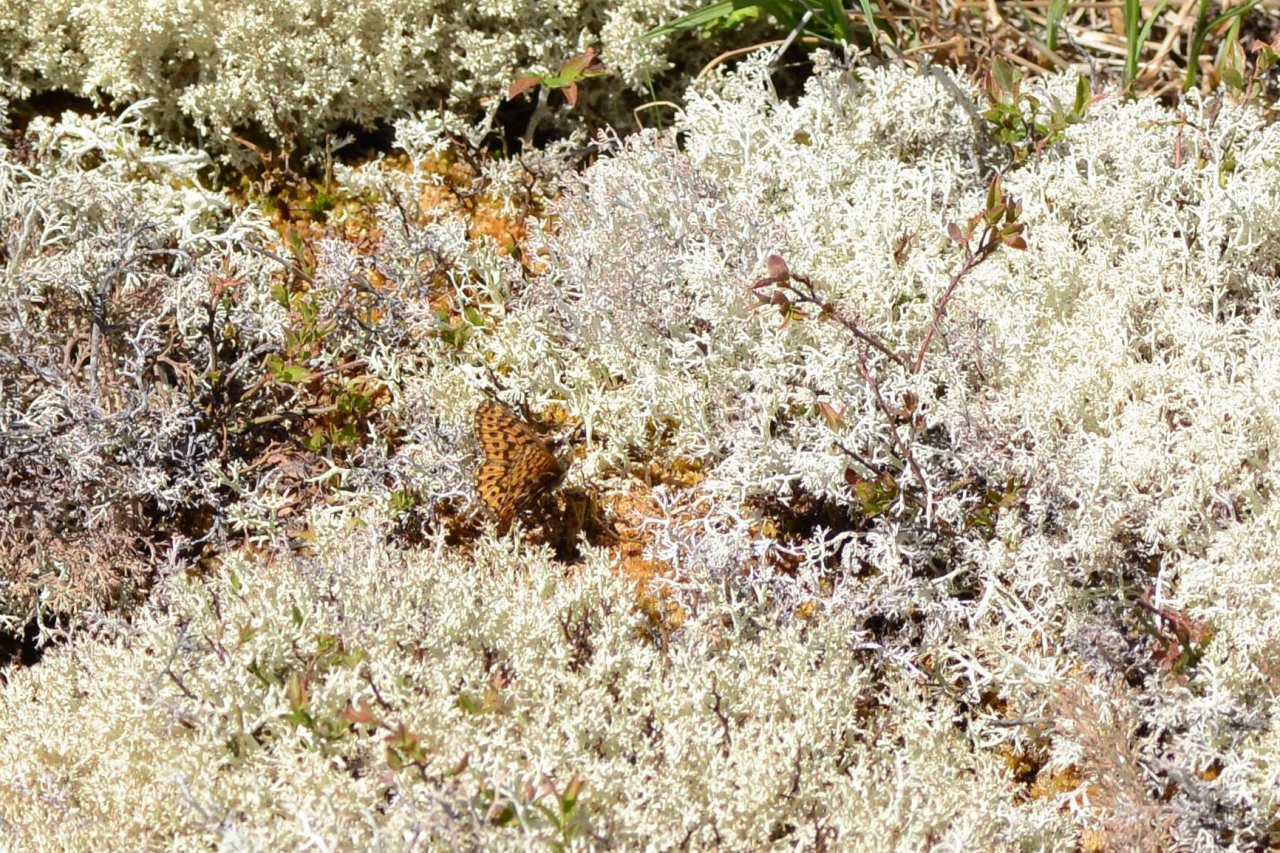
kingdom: Animalia
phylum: Arthropoda
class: Insecta
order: Lepidoptera
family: Nymphalidae
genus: Boloria
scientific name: Boloria freija
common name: Freija Fritillary
